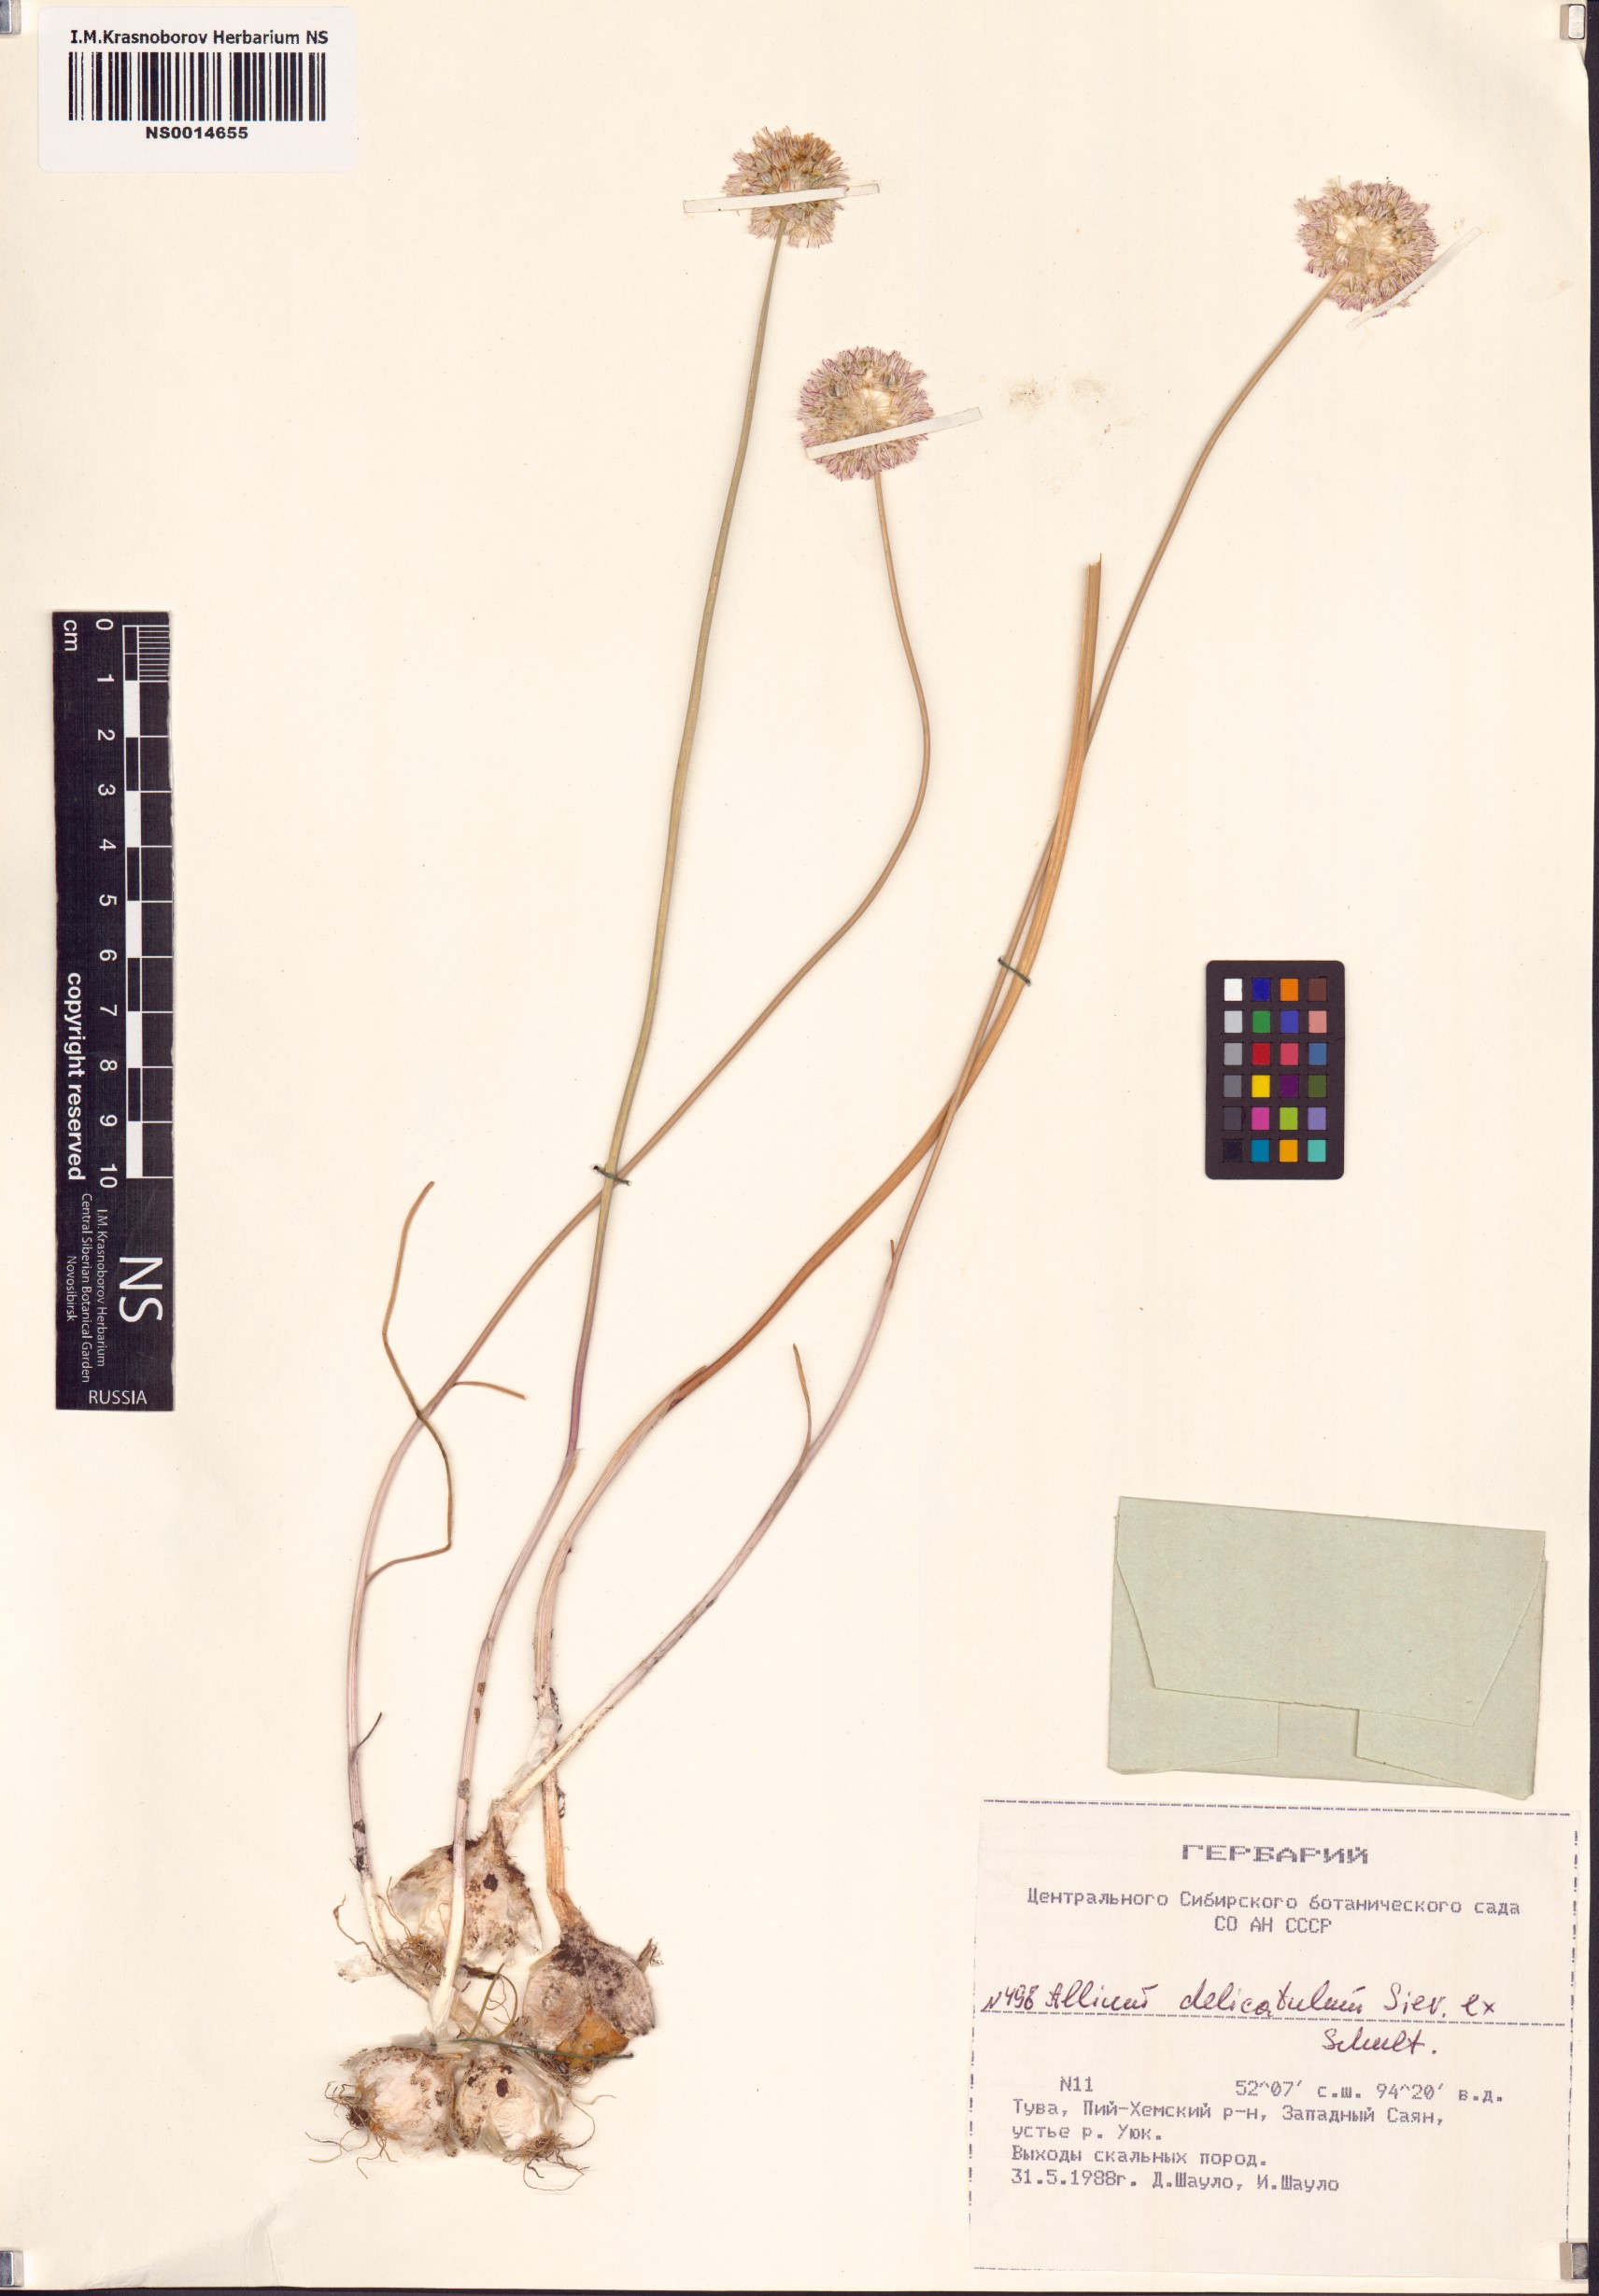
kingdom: Plantae
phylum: Tracheophyta
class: Liliopsida
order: Asparagales
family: Amaryllidaceae
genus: Allium
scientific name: Allium delicatulum
